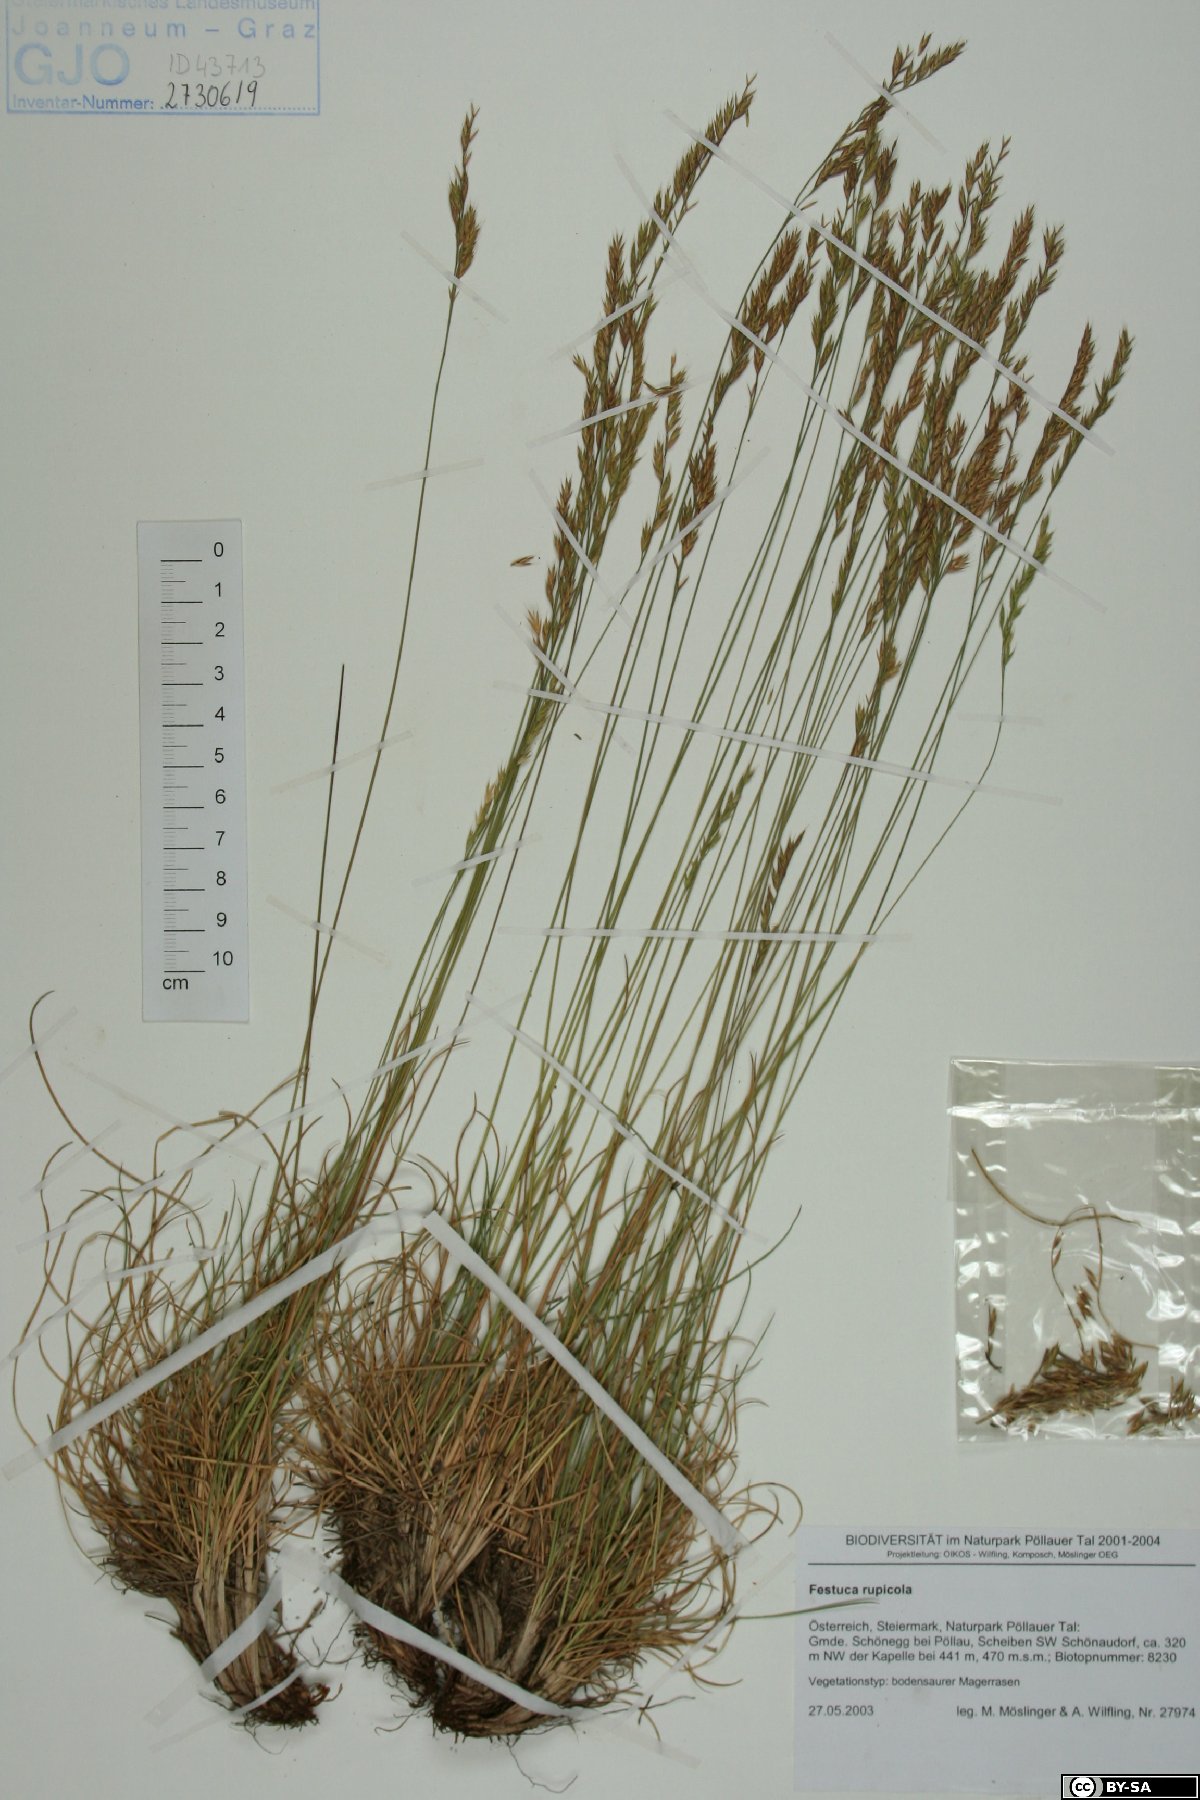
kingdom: Plantae
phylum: Tracheophyta
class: Liliopsida
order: Poales
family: Poaceae
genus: Festuca
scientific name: Festuca rupicola
